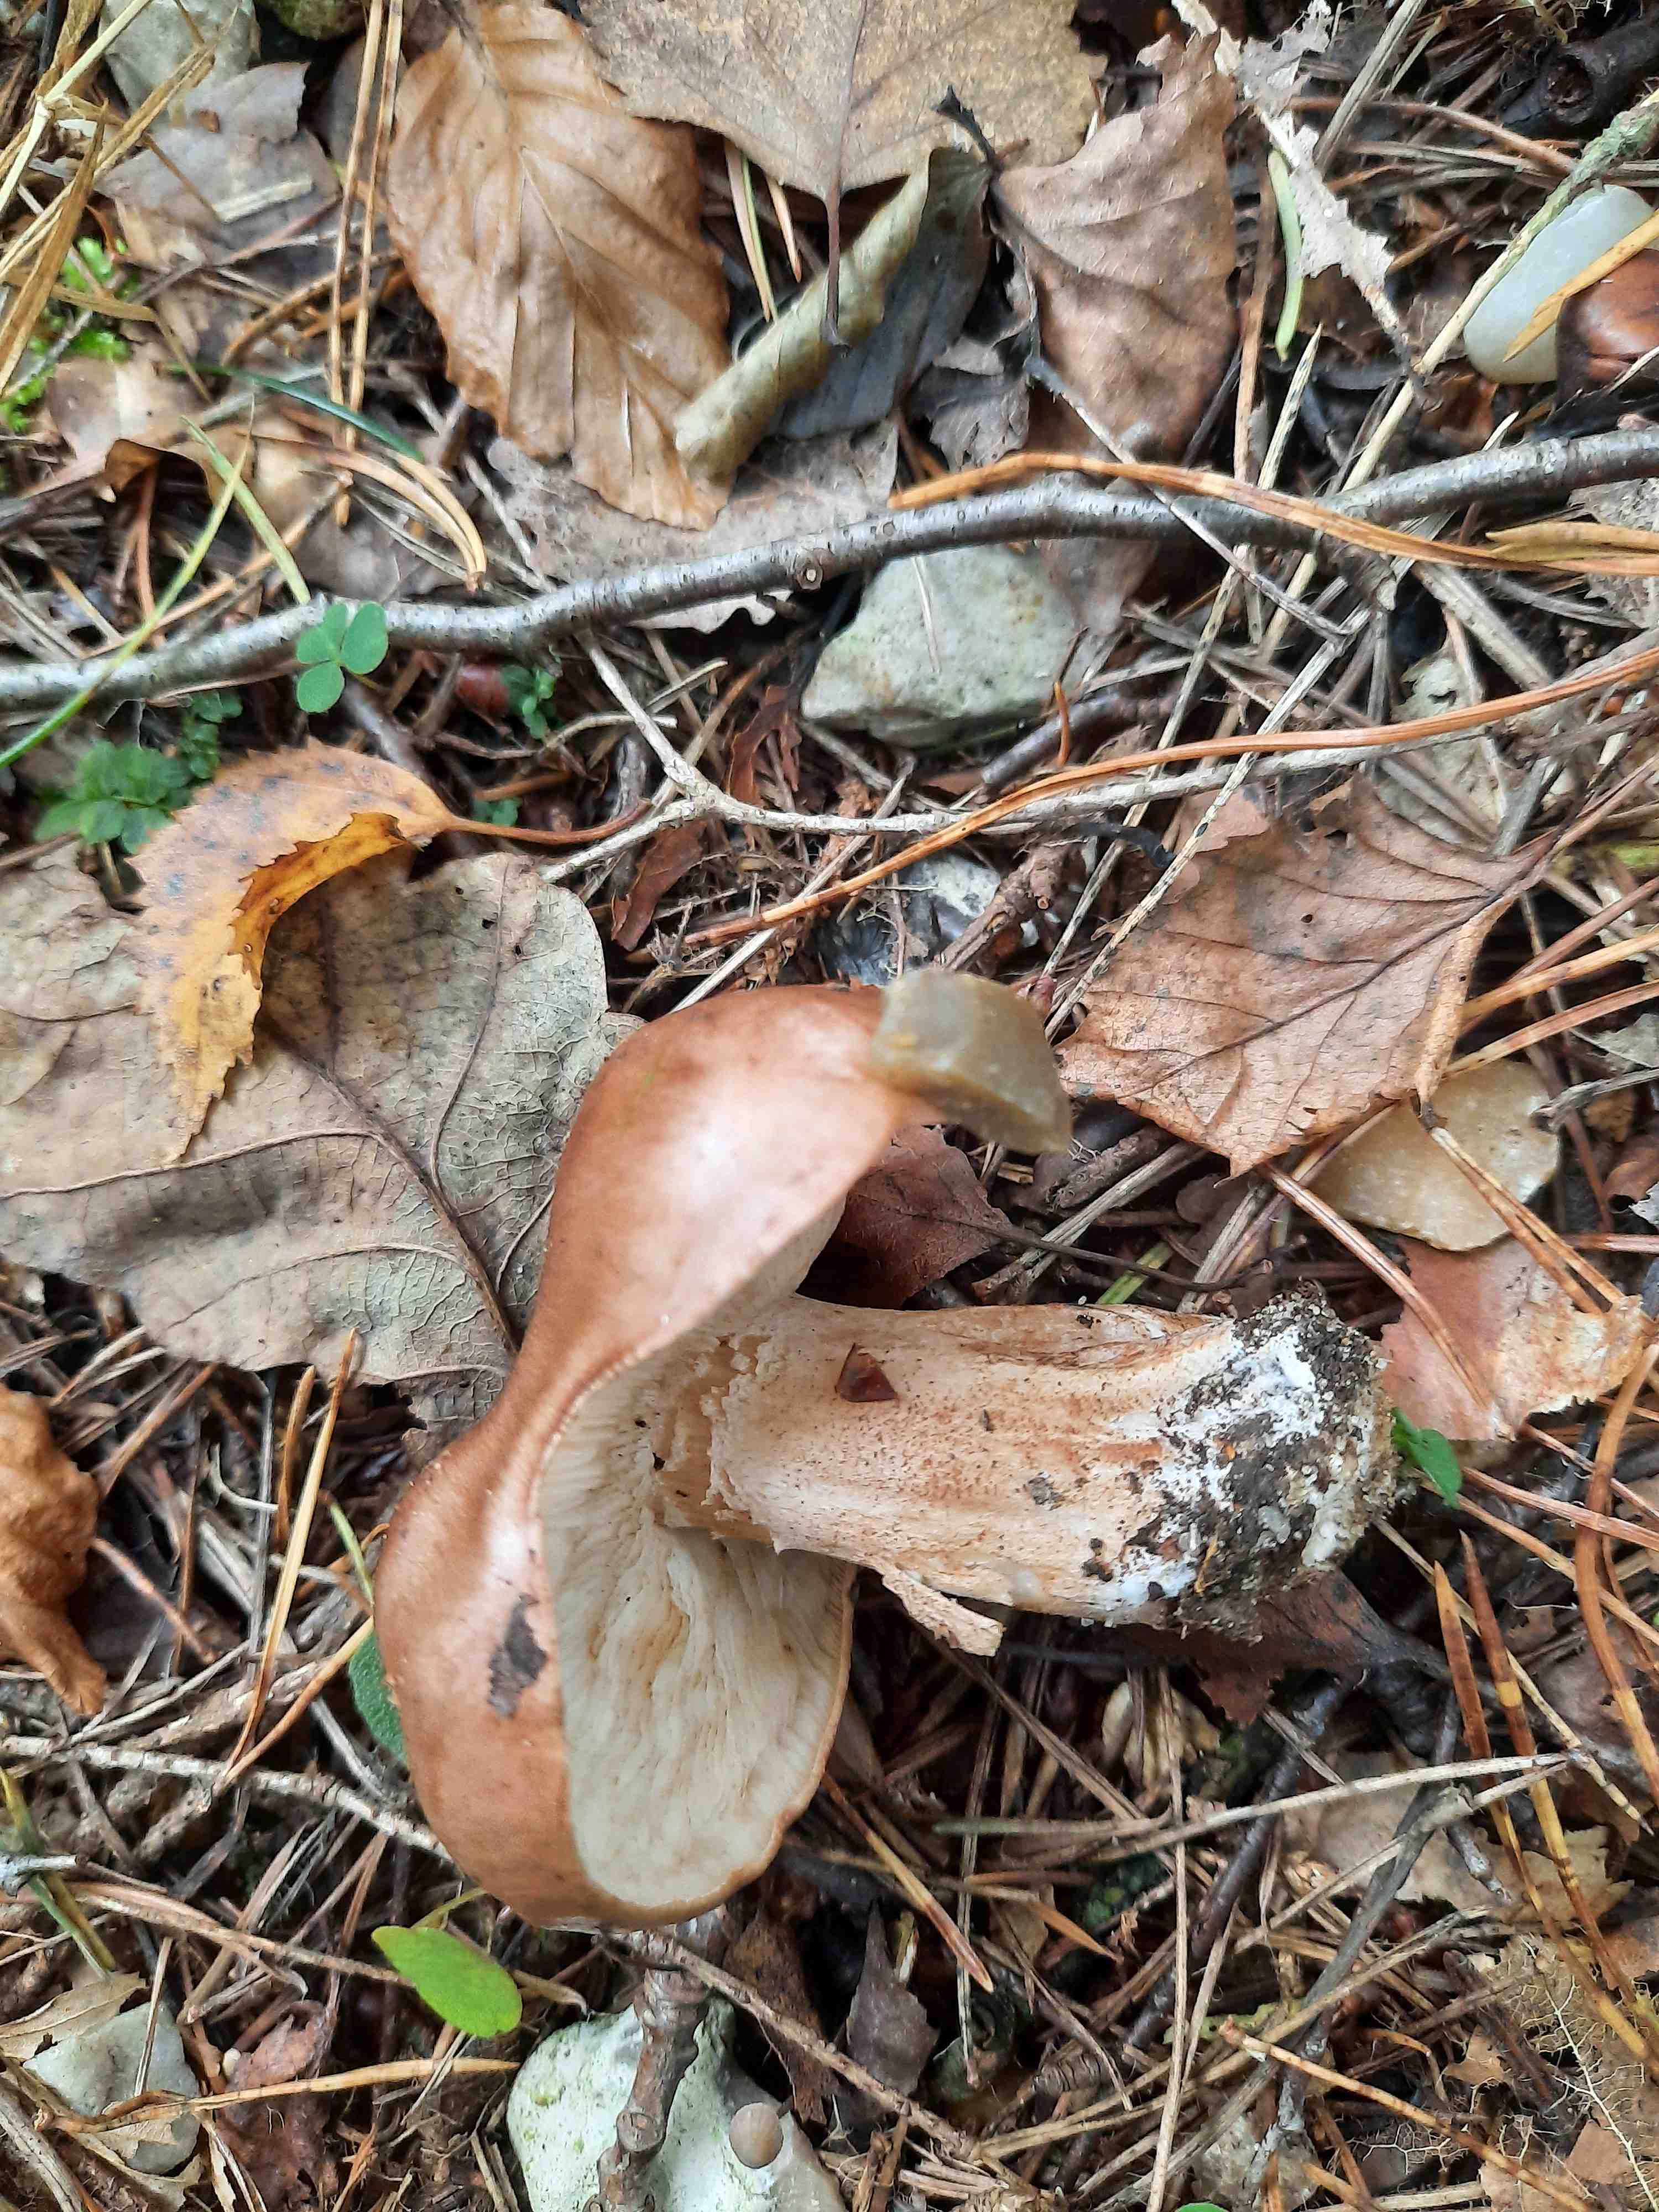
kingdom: Fungi
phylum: Basidiomycota
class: Agaricomycetes
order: Agaricales
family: Tricholomataceae
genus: Tricholoma
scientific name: Tricholoma populinum
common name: poppel-ridderhat
